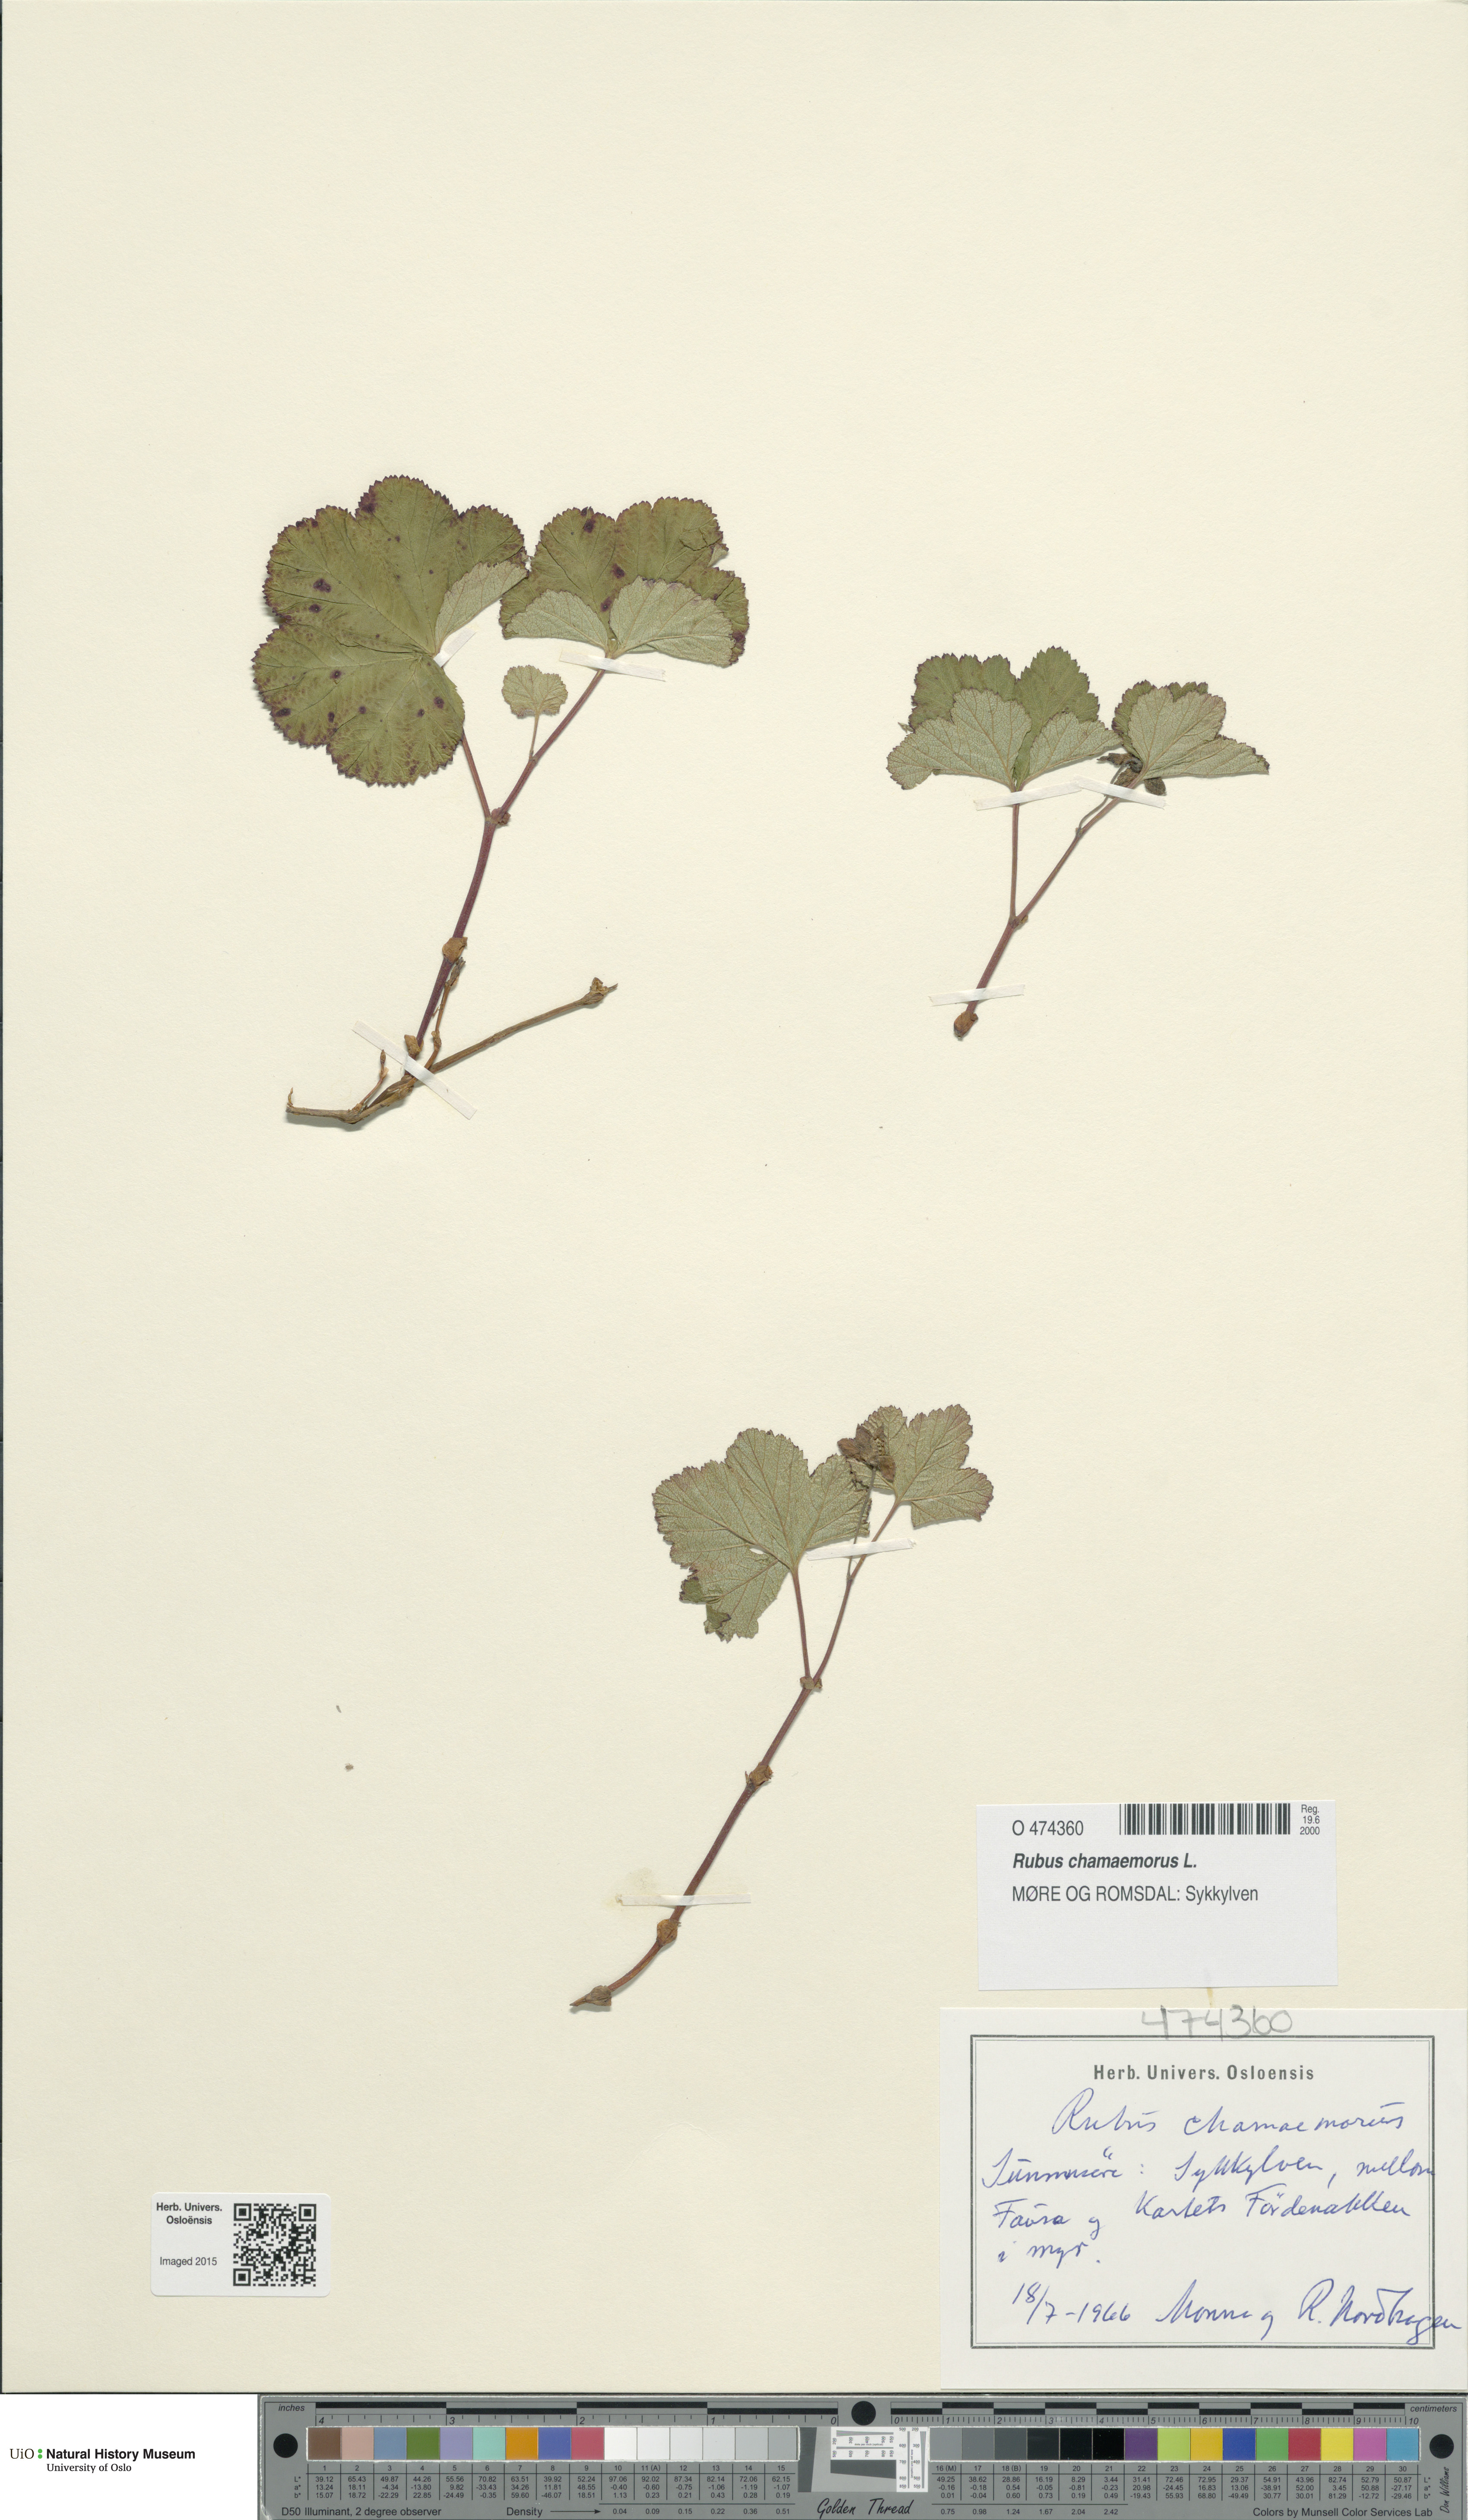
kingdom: Plantae
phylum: Tracheophyta
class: Magnoliopsida
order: Rosales
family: Rosaceae
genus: Rubus
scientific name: Rubus chamaemorus
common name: Cloudberry
